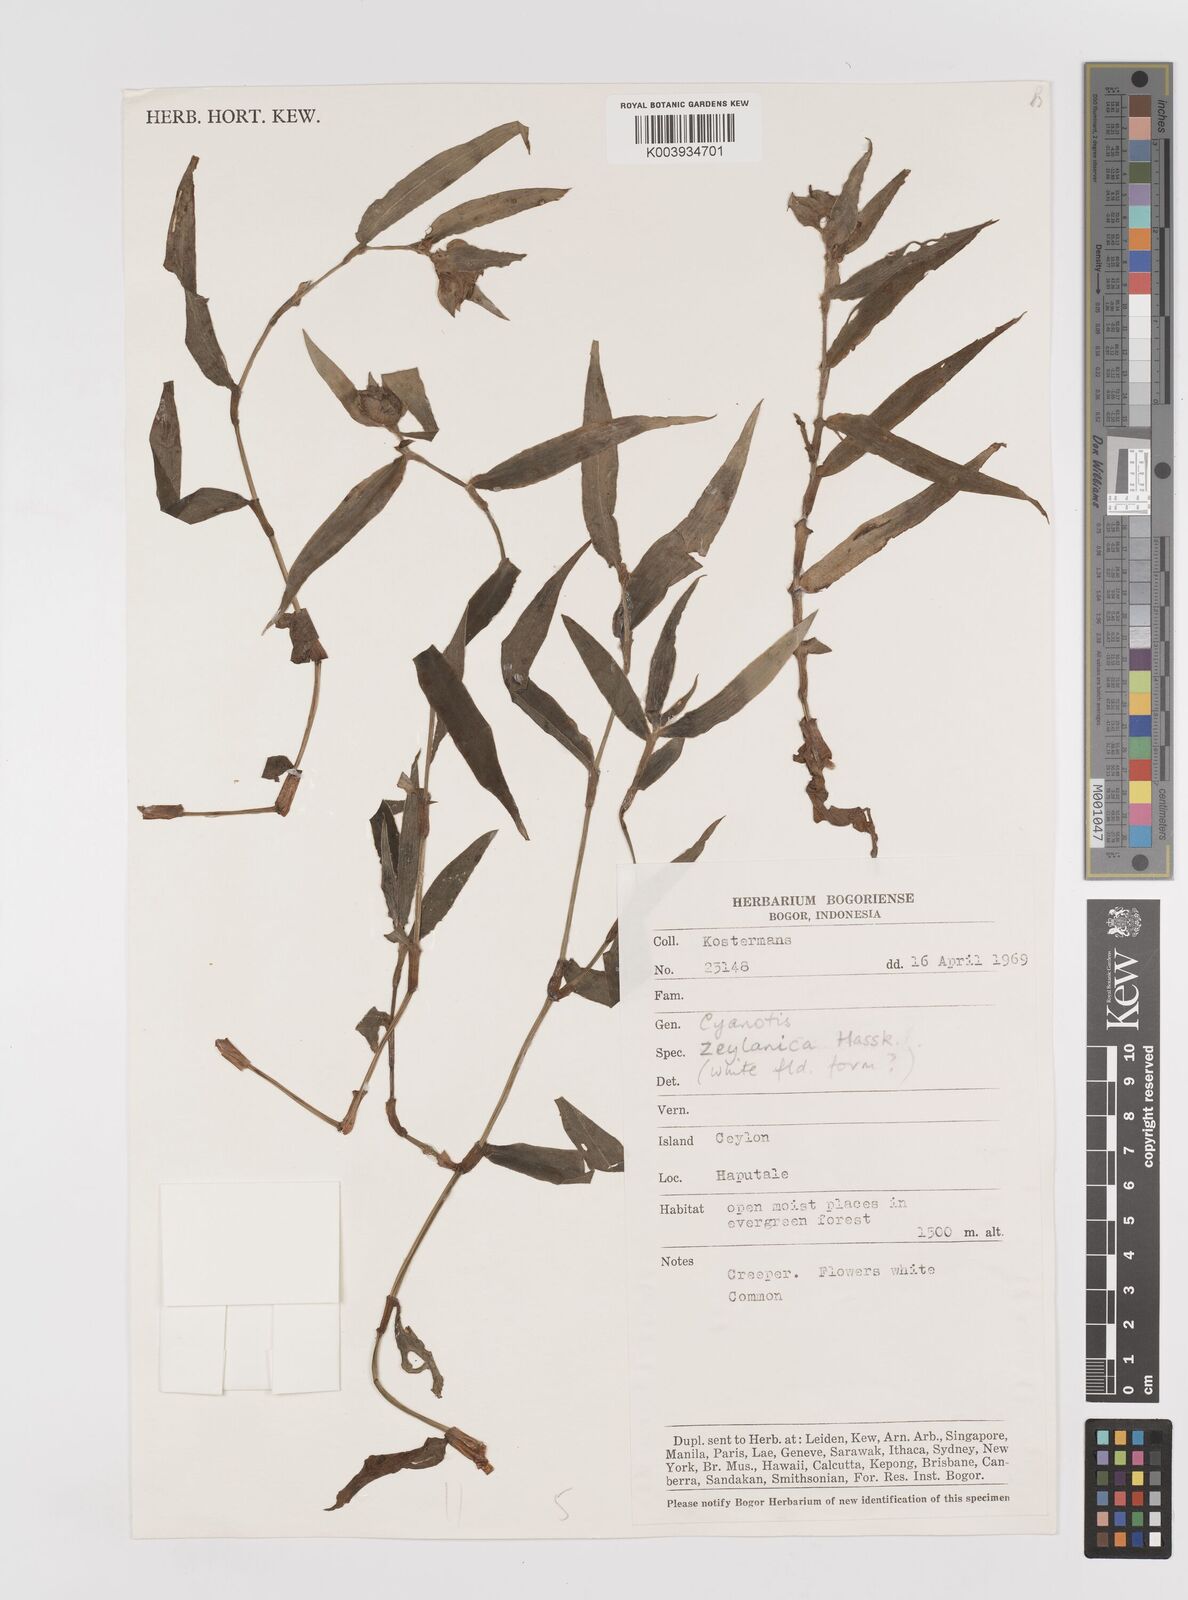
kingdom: Plantae
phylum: Tracheophyta
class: Liliopsida
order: Commelinales
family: Commelinaceae
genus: Cyanotis
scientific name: Cyanotis ceylanica
